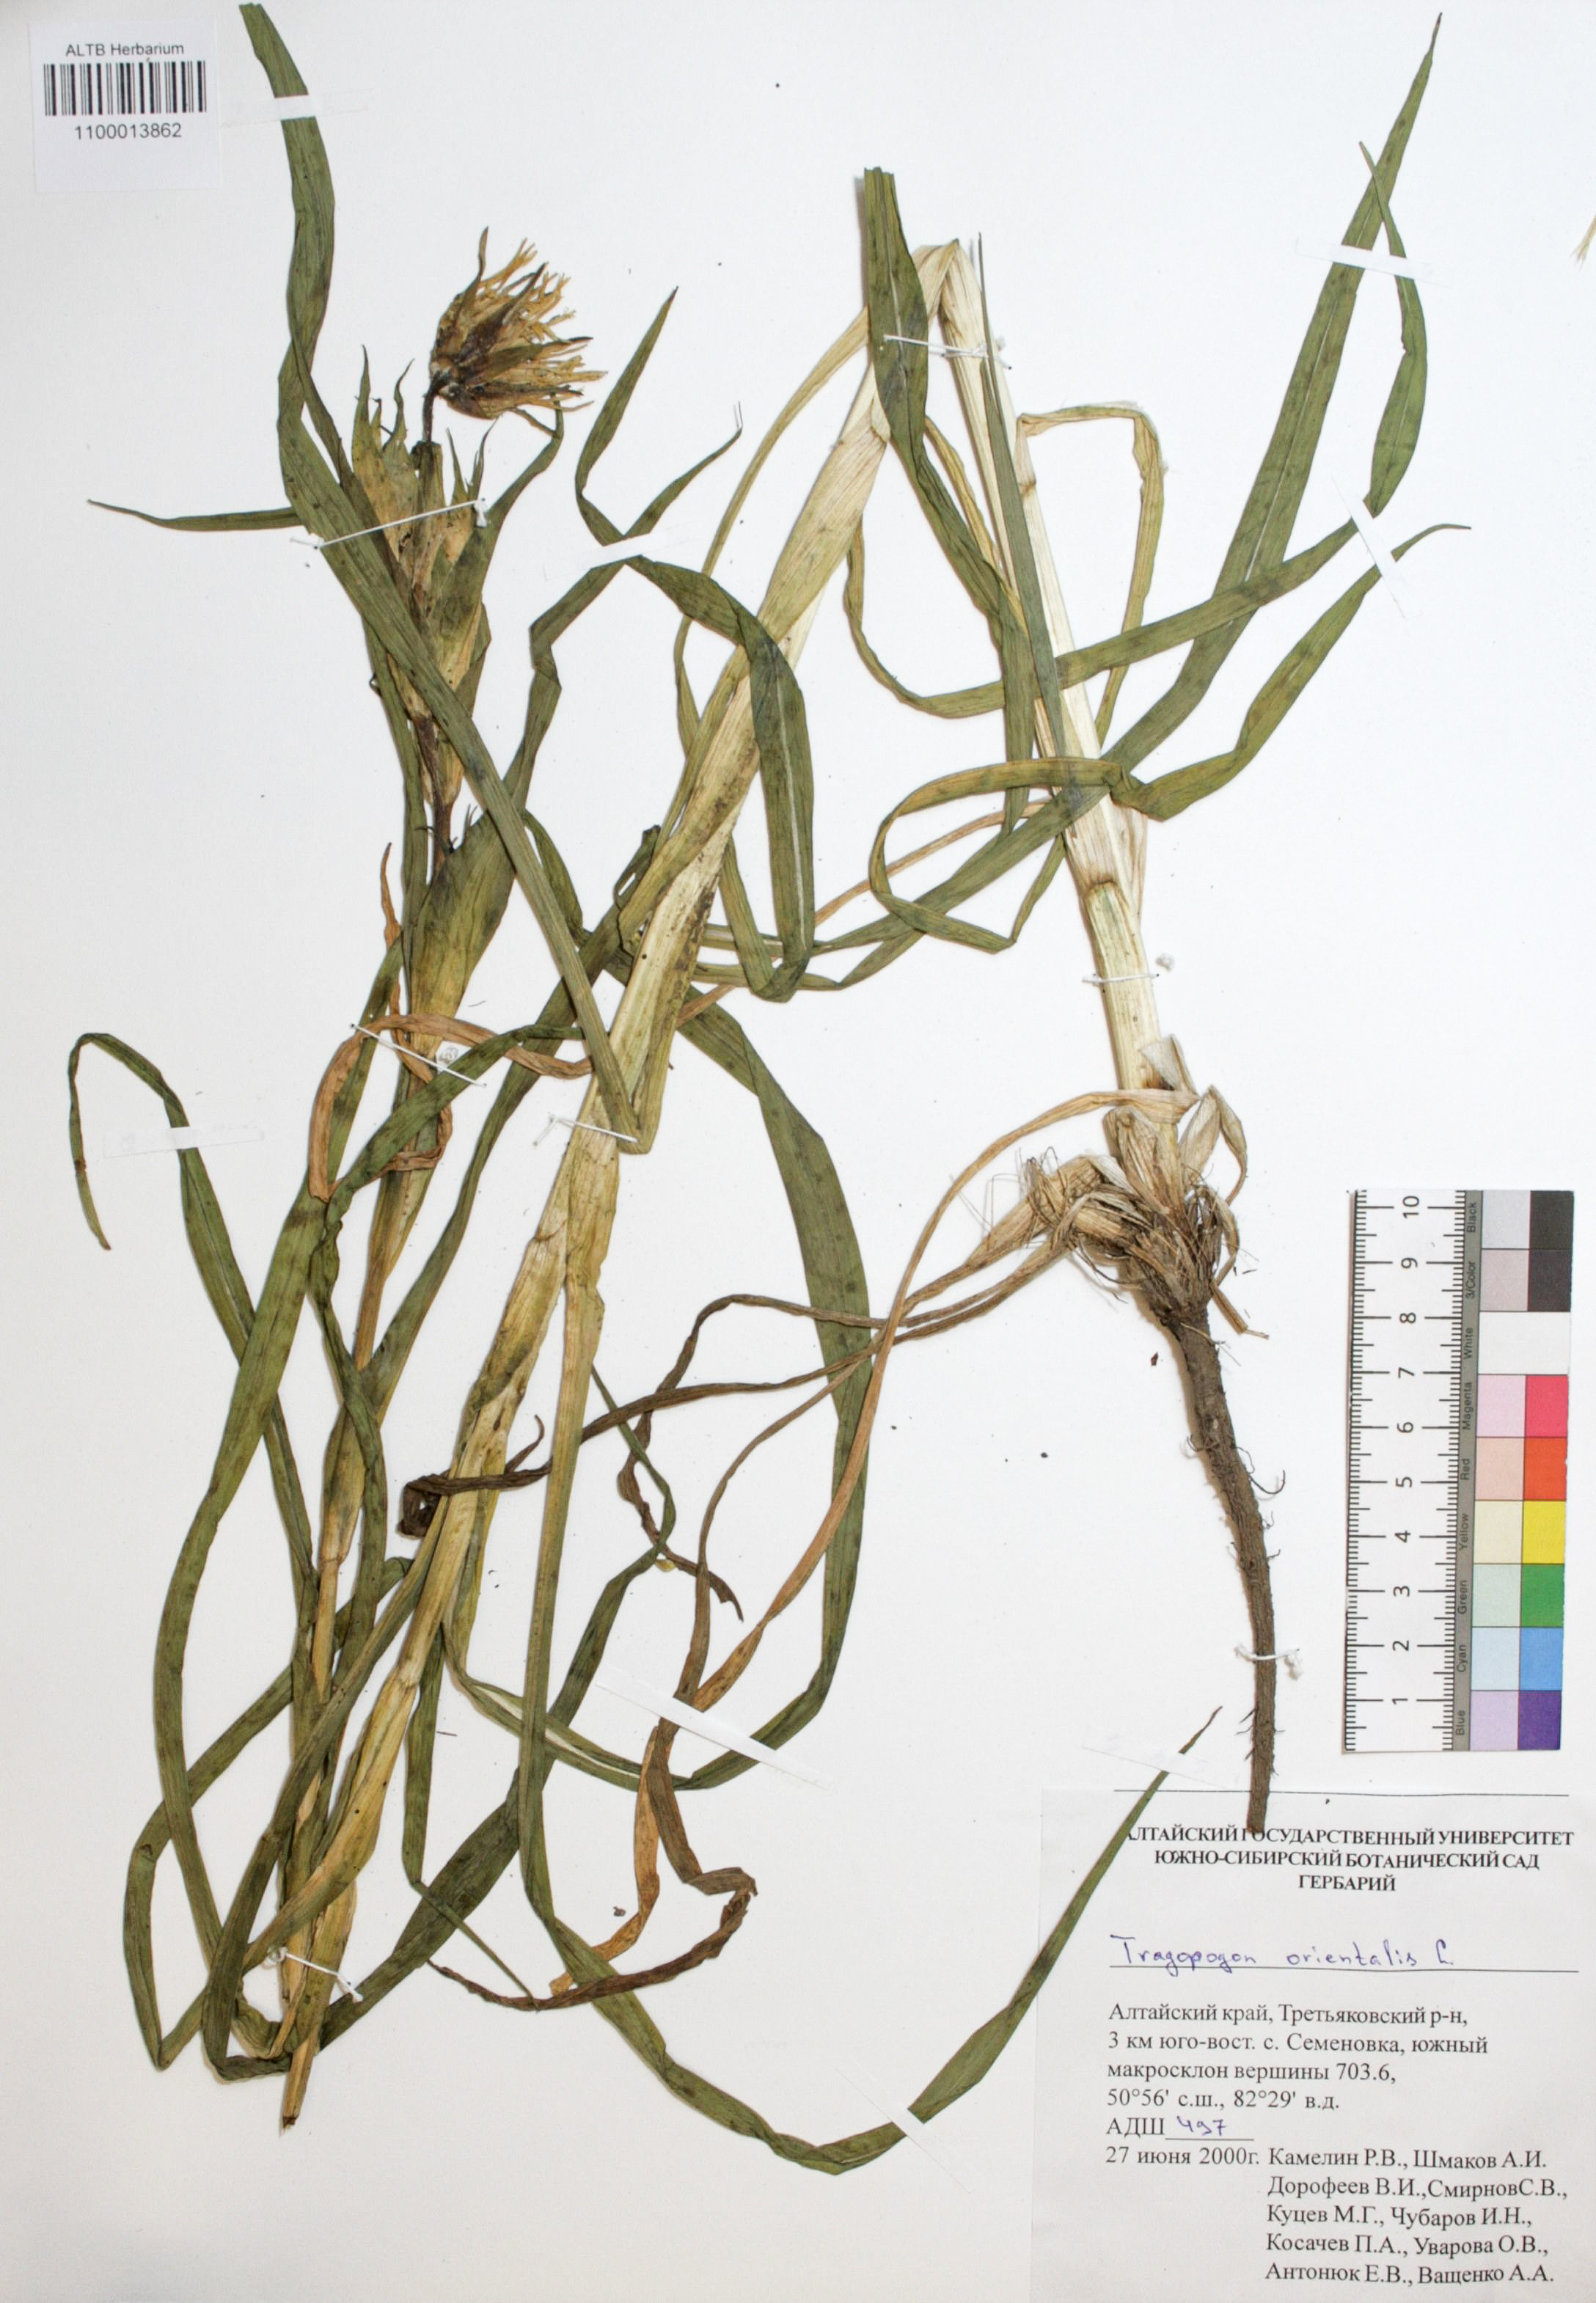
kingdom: Plantae
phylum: Tracheophyta
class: Magnoliopsida
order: Asterales
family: Asteraceae
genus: Tragopogon
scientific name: Tragopogon orientalis
